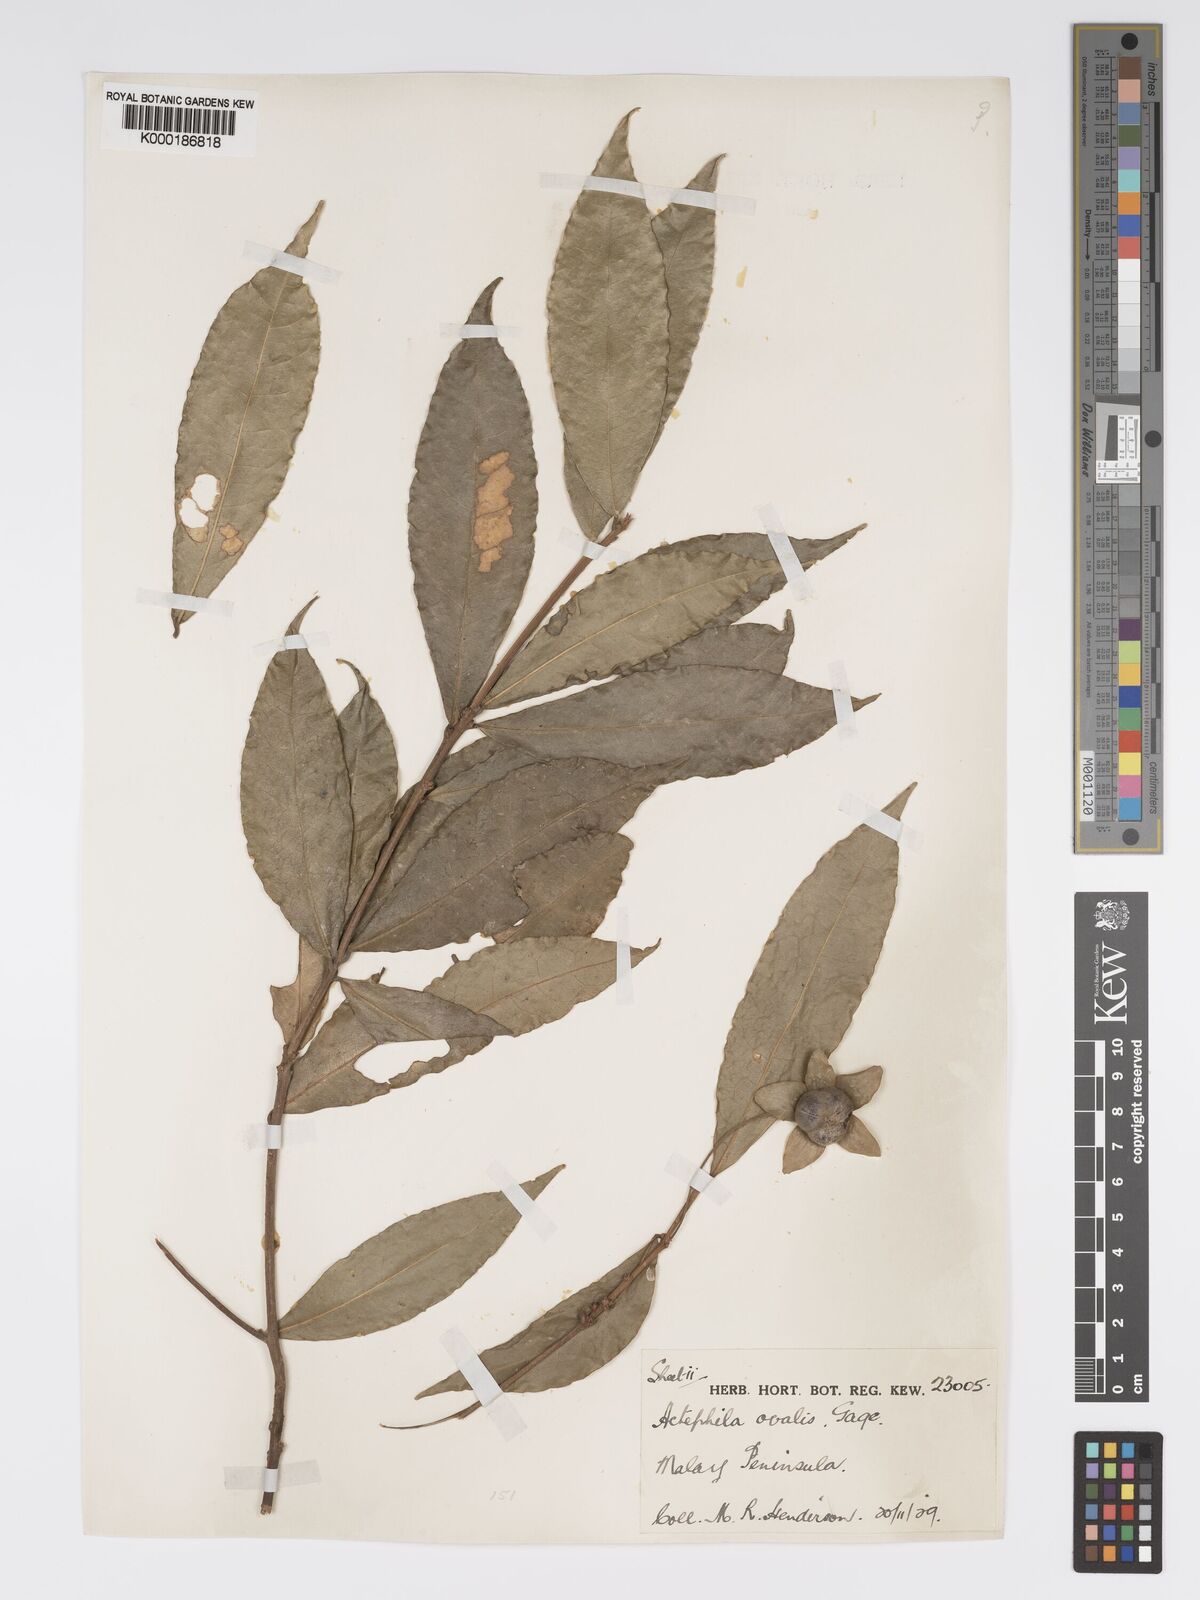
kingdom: Plantae
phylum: Tracheophyta
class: Magnoliopsida
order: Malpighiales
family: Phyllanthaceae
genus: Actephila
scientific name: Actephila ovalis
